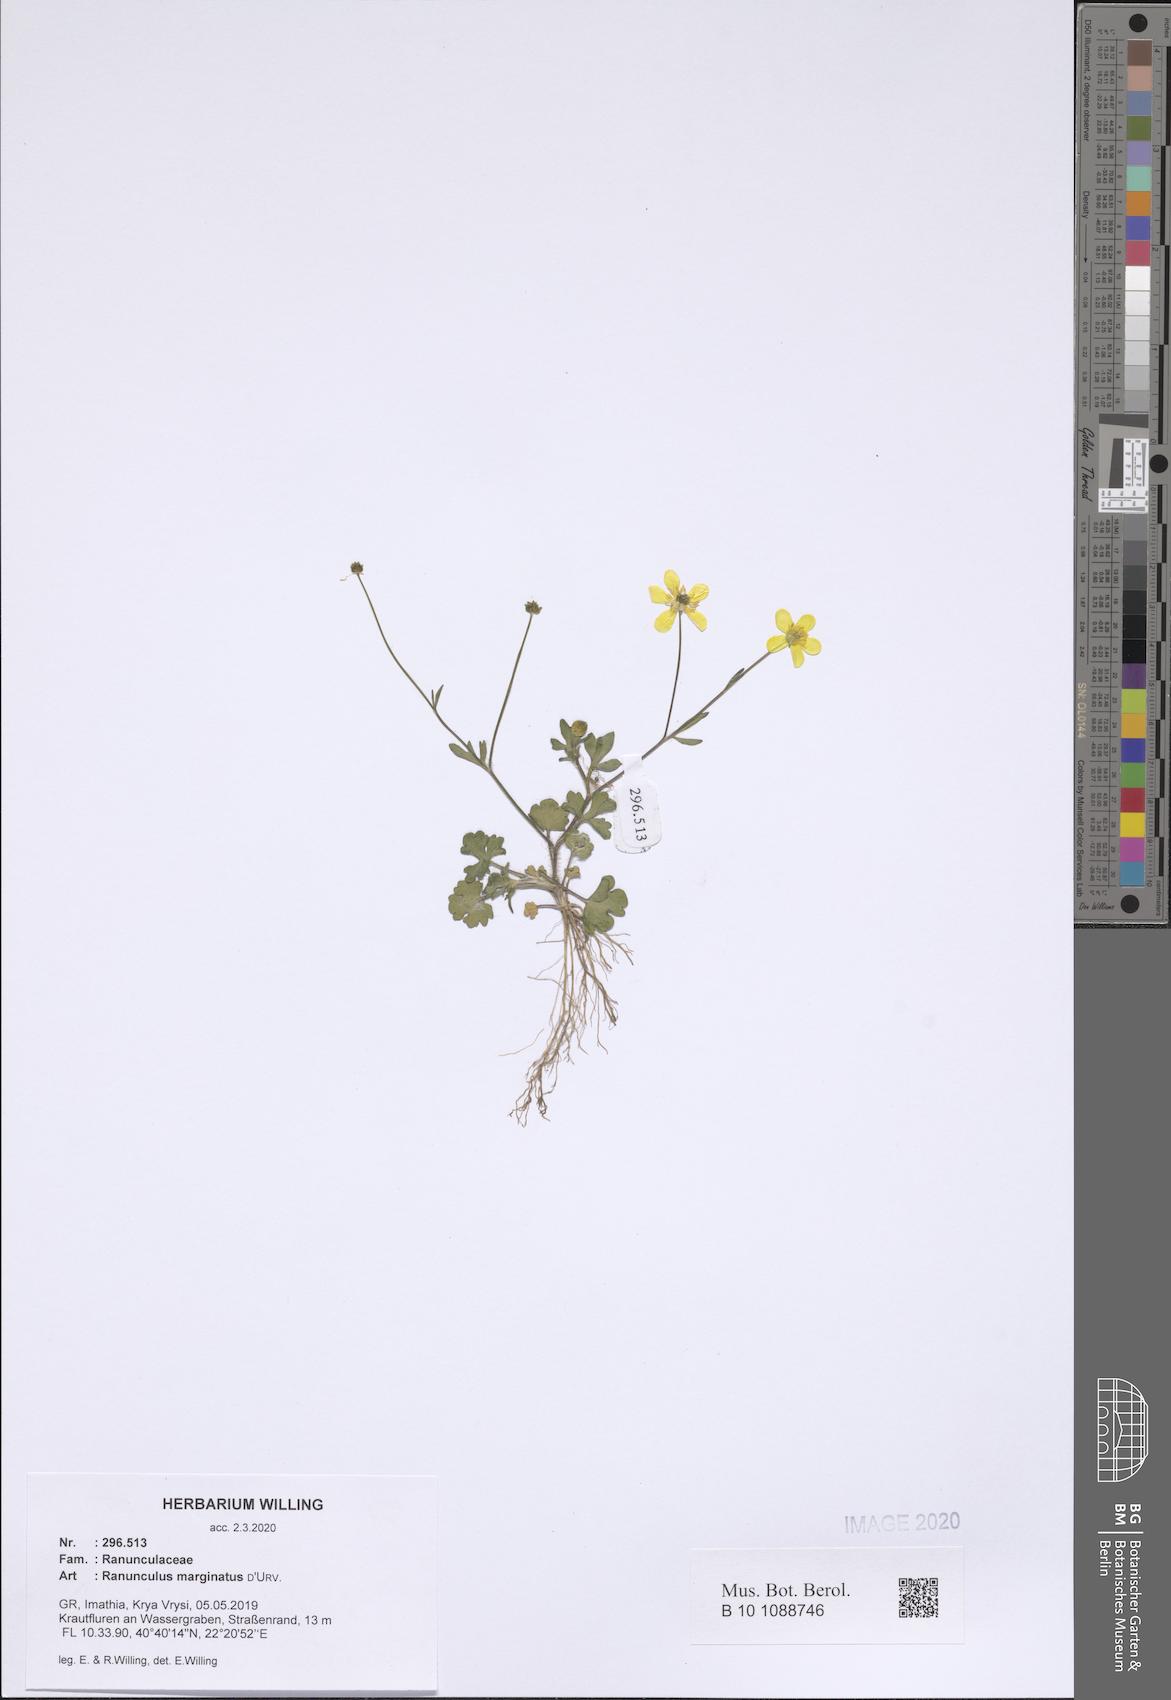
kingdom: Plantae
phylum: Tracheophyta
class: Magnoliopsida
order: Ranunculales
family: Ranunculaceae
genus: Ranunculus
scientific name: Ranunculus marginatus
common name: St. martin's buttercup
